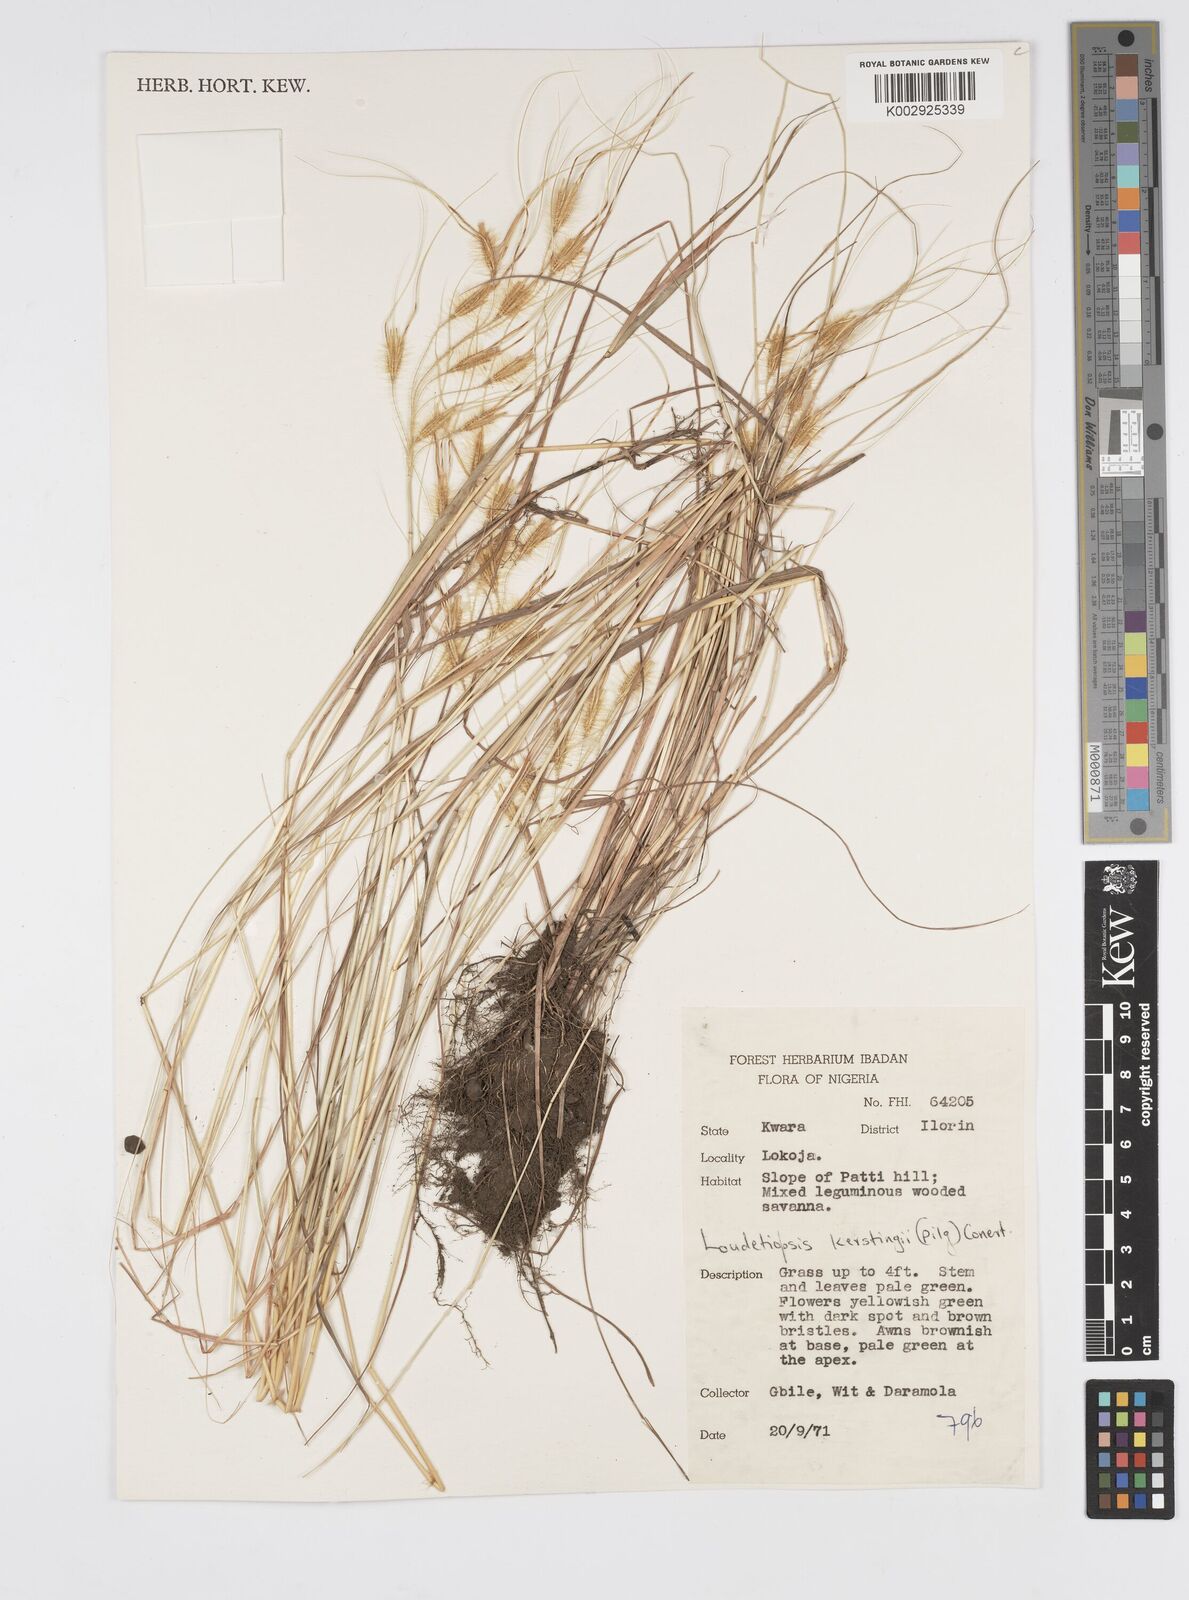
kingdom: Plantae
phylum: Tracheophyta
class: Liliopsida
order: Poales
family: Poaceae
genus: Loudetiopsis
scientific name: Loudetiopsis kerstingii
